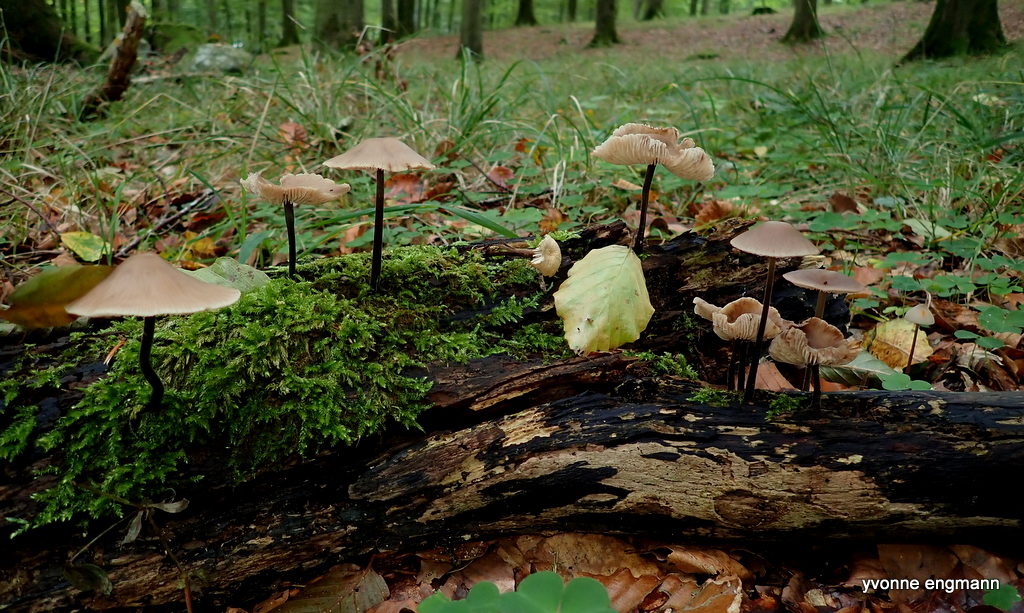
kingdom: Fungi
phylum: Basidiomycota
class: Agaricomycetes
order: Agaricales
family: Omphalotaceae
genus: Mycetinis
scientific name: Mycetinis alliaceus
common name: stor løghat
